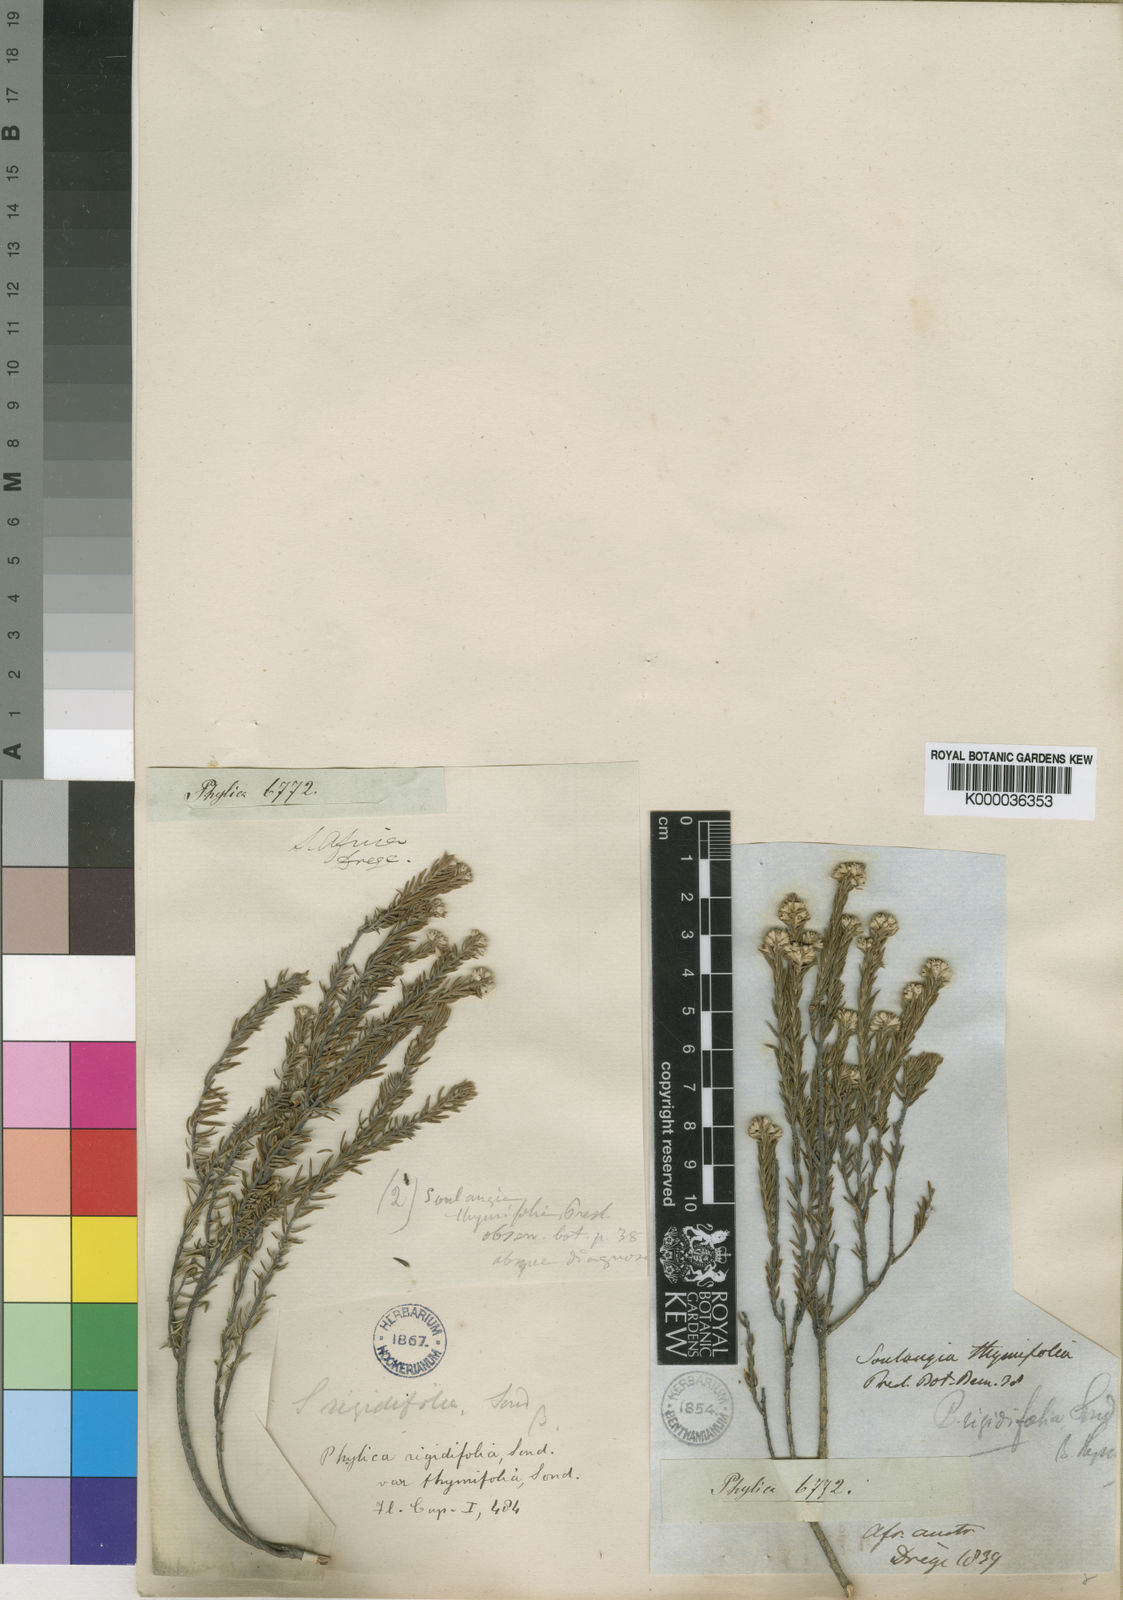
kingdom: Plantae
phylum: Tracheophyta
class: Magnoliopsida
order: Rosales
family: Rhamnaceae
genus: Phylica
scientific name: Phylica purpurea
